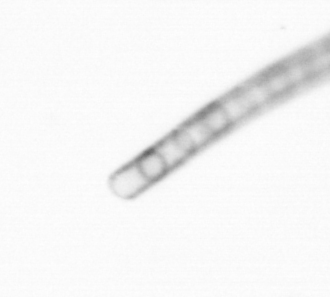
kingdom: Chromista
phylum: Ochrophyta
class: Bacillariophyceae
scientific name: Bacillariophyceae
